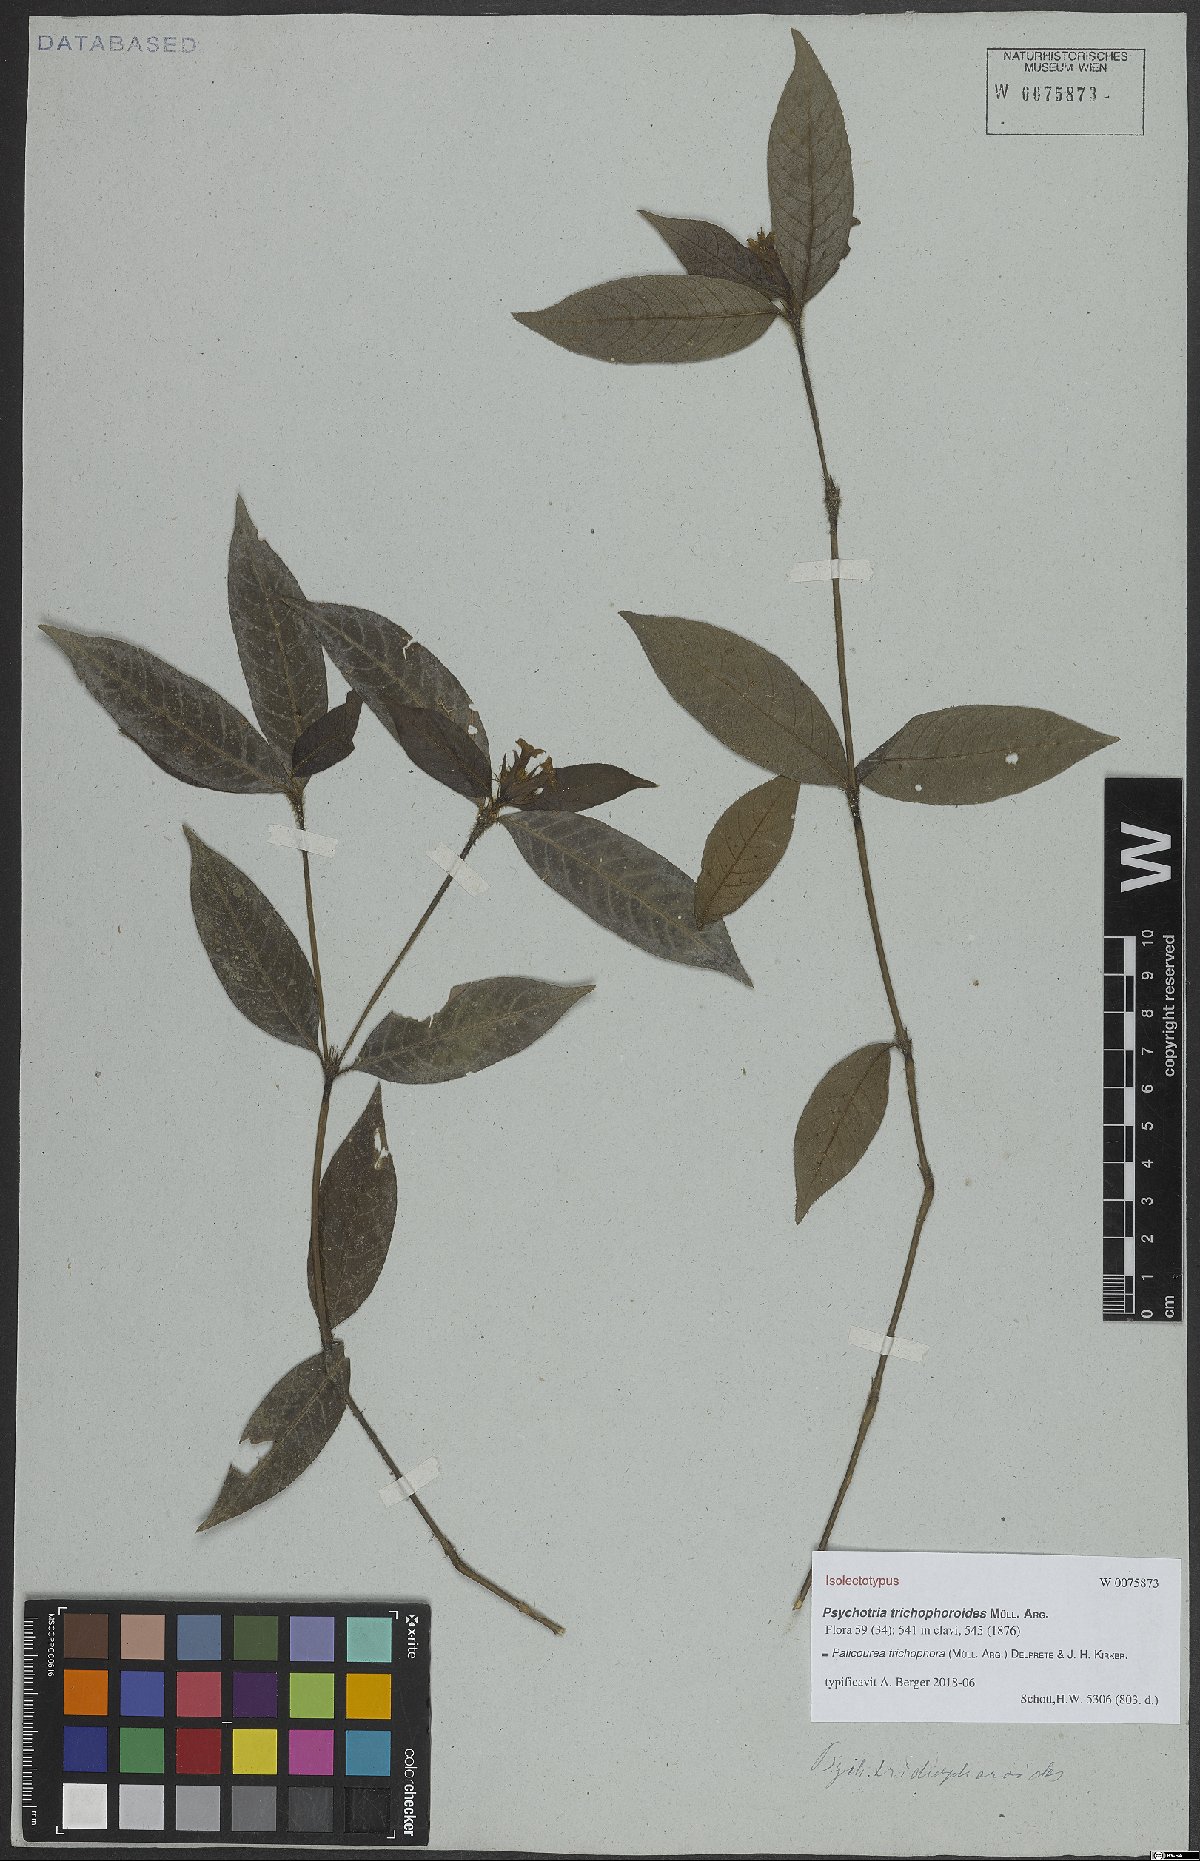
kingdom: Plantae
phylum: Tracheophyta
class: Magnoliopsida
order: Gentianales
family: Rubiaceae
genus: Palicourea
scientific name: Palicourea trichophora
